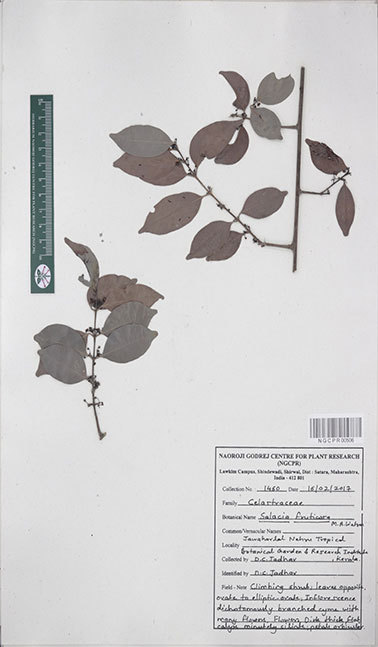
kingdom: Plantae
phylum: Tracheophyta
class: Magnoliopsida
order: Celastrales
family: Celastraceae
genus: Salacia
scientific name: Salacia fruticosa
